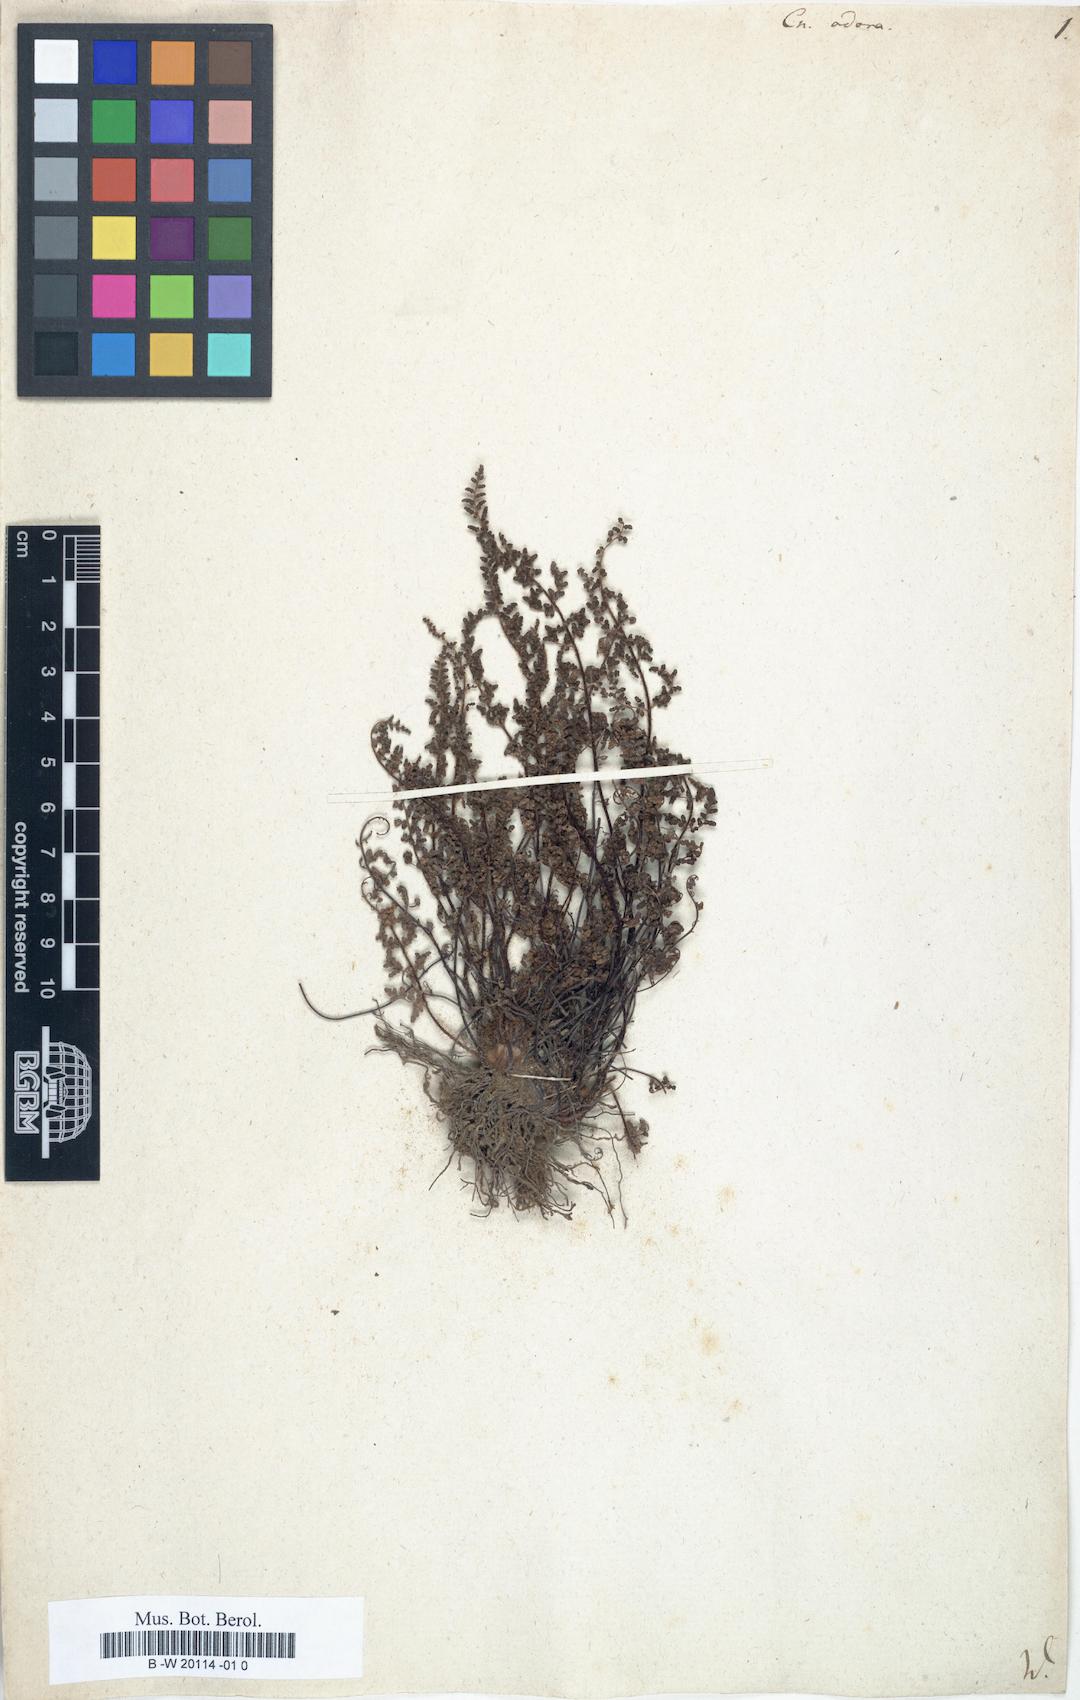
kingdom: Plantae
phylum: Tracheophyta
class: Polypodiopsida
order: Polypodiales
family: Pteridaceae
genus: Oeosporangium
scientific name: Oeosporangium pteridioides
